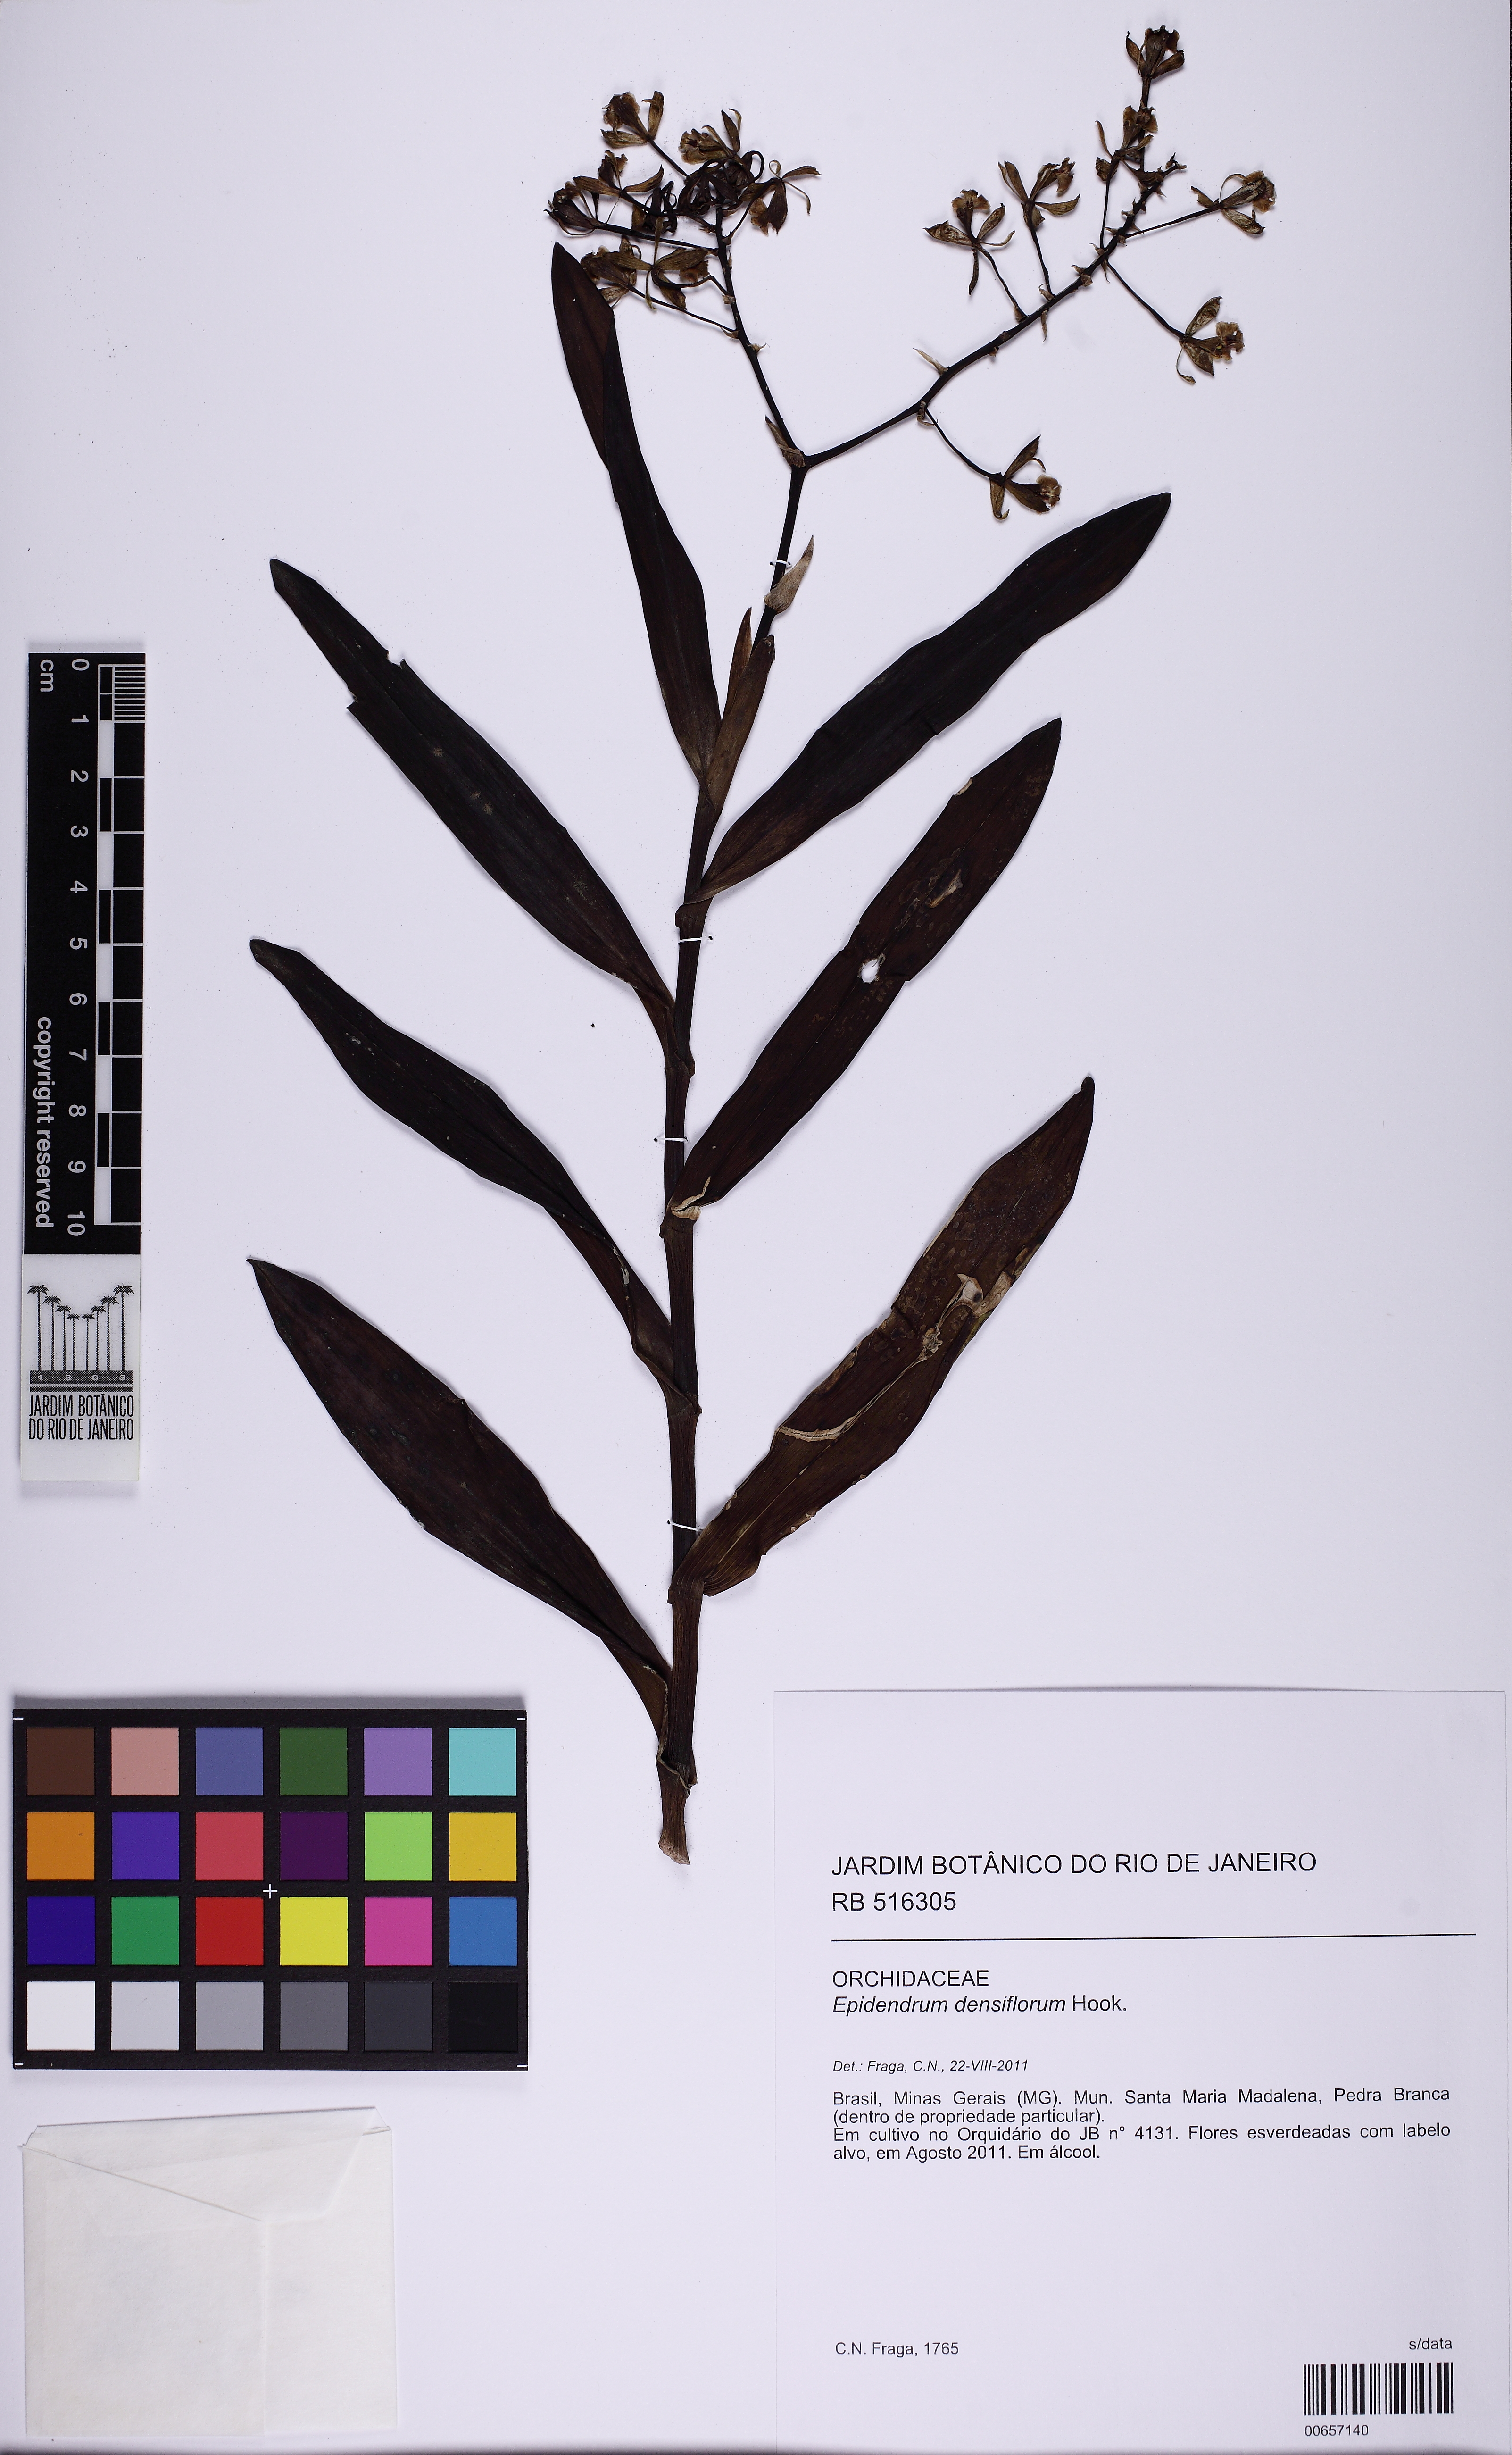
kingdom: Plantae
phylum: Tracheophyta
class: Liliopsida
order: Asparagales
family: Orchidaceae
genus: Epidendrum
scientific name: Epidendrum densiflorum
